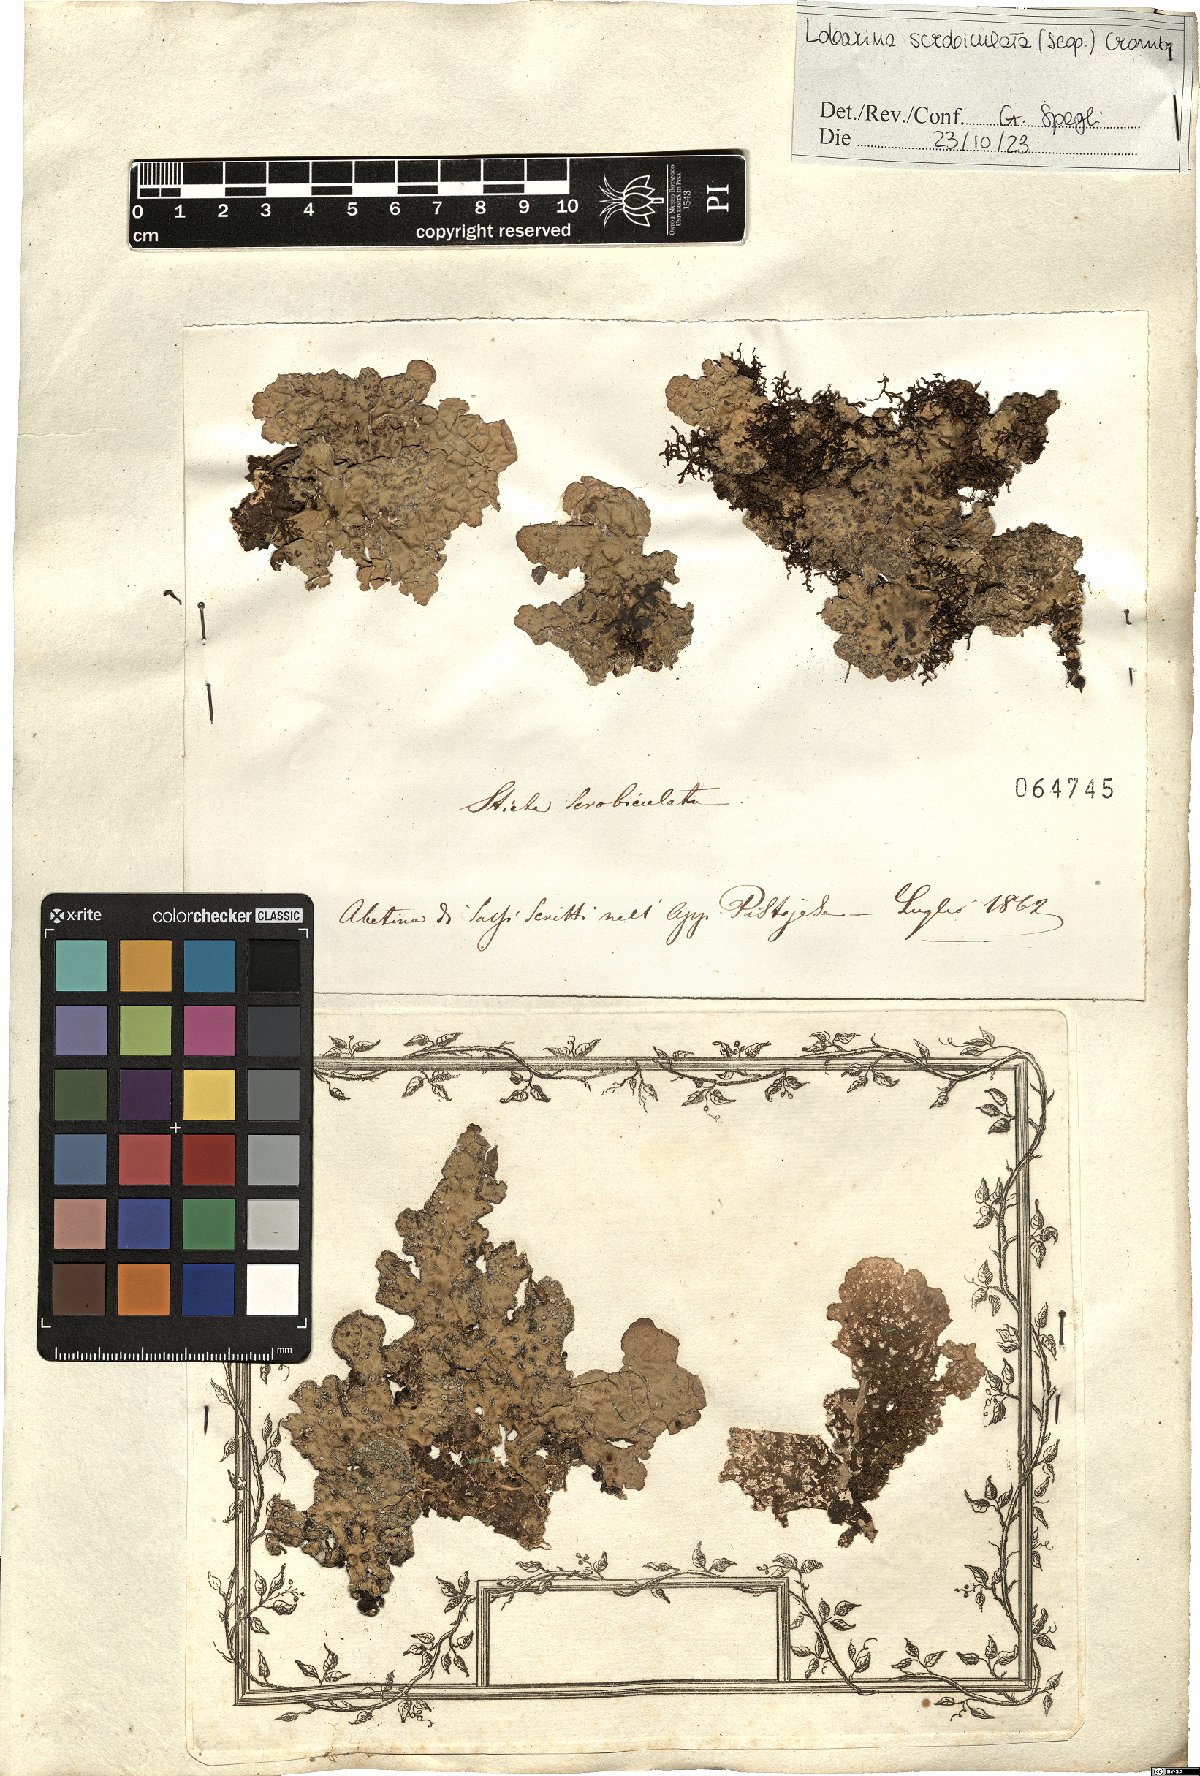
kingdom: Fungi
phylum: Ascomycota
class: Lecanoromycetes
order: Peltigerales
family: Lobariaceae
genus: Lobarina
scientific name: Lobarina scrobiculata
